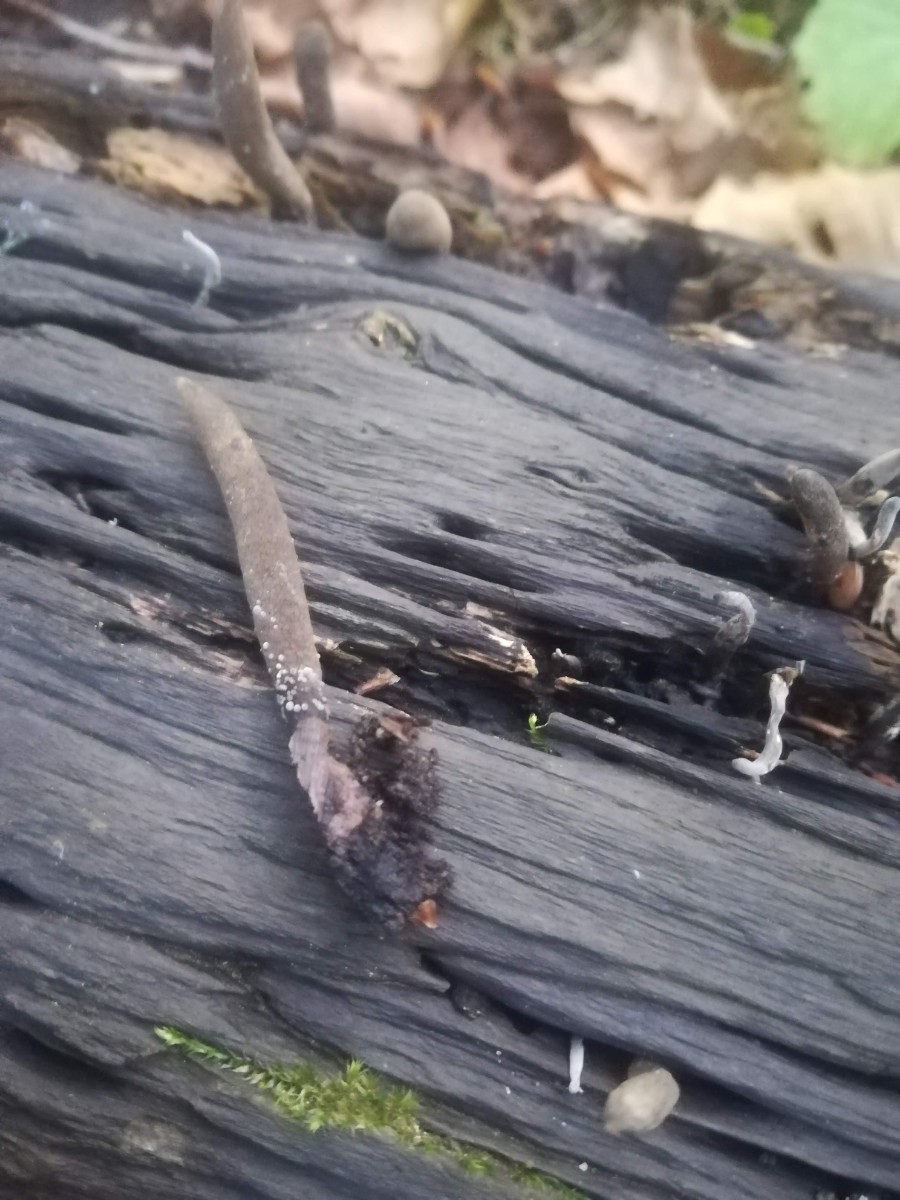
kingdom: Fungi
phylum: Ascomycota
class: Sordariomycetes
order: Xylariales
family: Xylariaceae
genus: Xylaria
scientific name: Xylaria longipes
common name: slank stødsvamp
